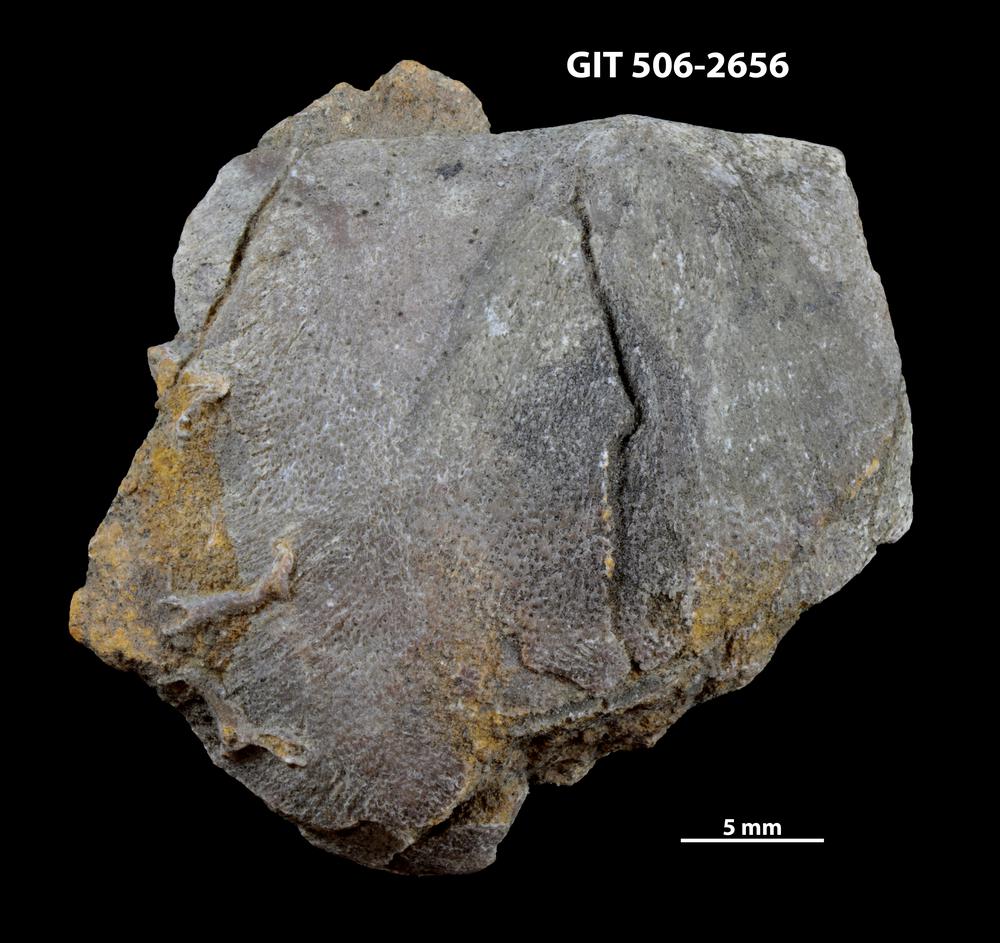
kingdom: Animalia
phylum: Brachiopoda
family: Stropheodontidae
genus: Strophodonta
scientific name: Strophodonta Brachyprion semiglobosa
